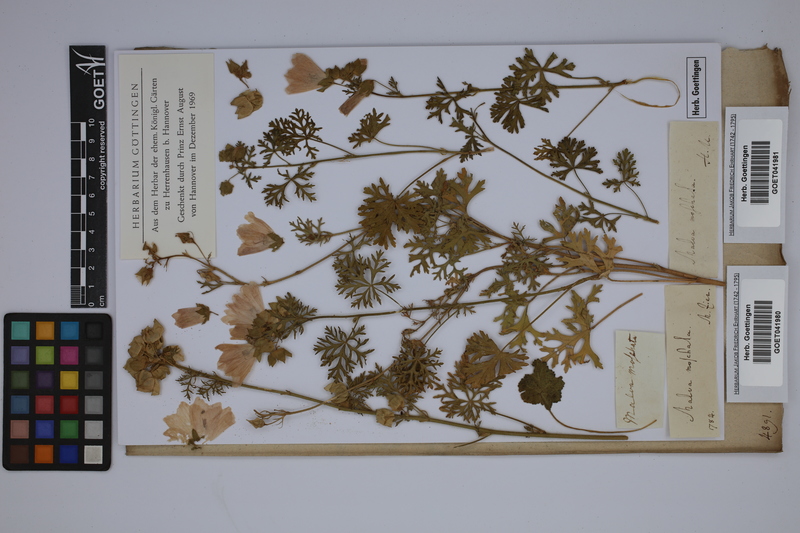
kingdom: Plantae
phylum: Tracheophyta
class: Magnoliopsida
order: Malvales
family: Malvaceae
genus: Malva
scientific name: Malva moschata
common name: Musk mallow
